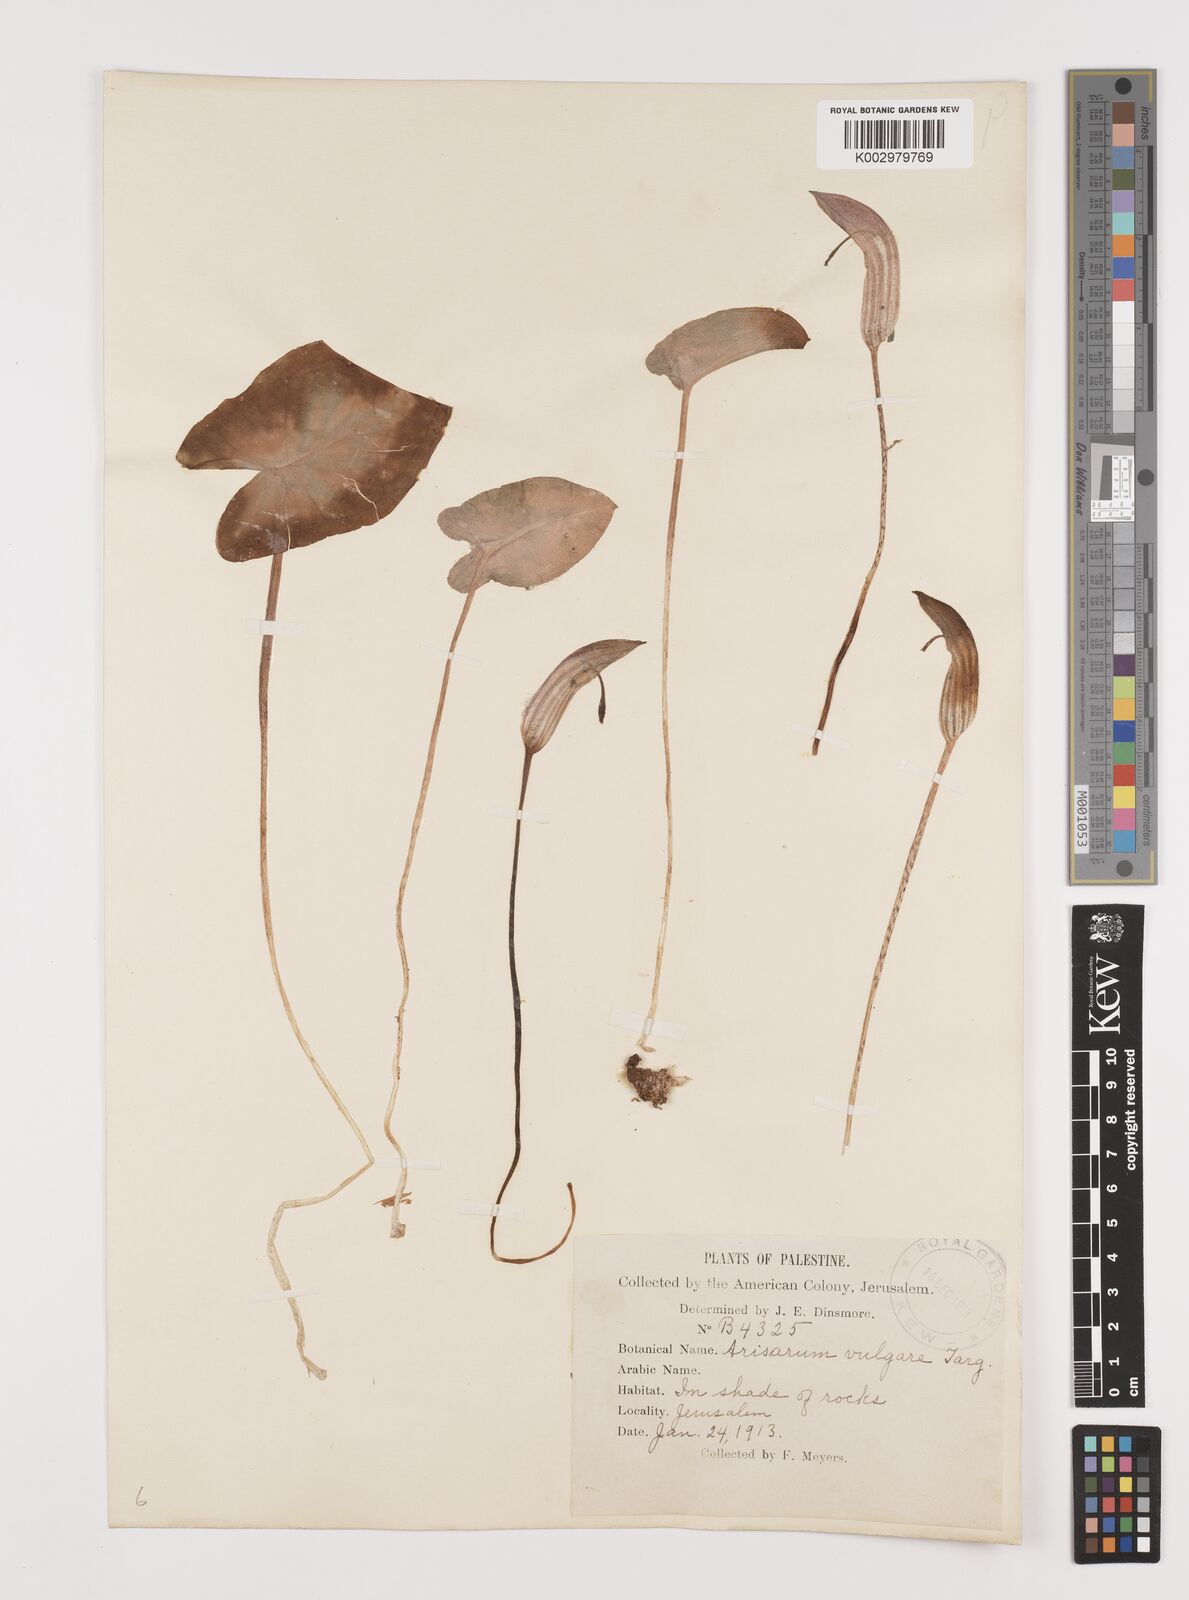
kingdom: Plantae
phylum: Tracheophyta
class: Liliopsida
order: Alismatales
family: Araceae
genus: Arisarum
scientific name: Arisarum vulgare
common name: Common arisarum
